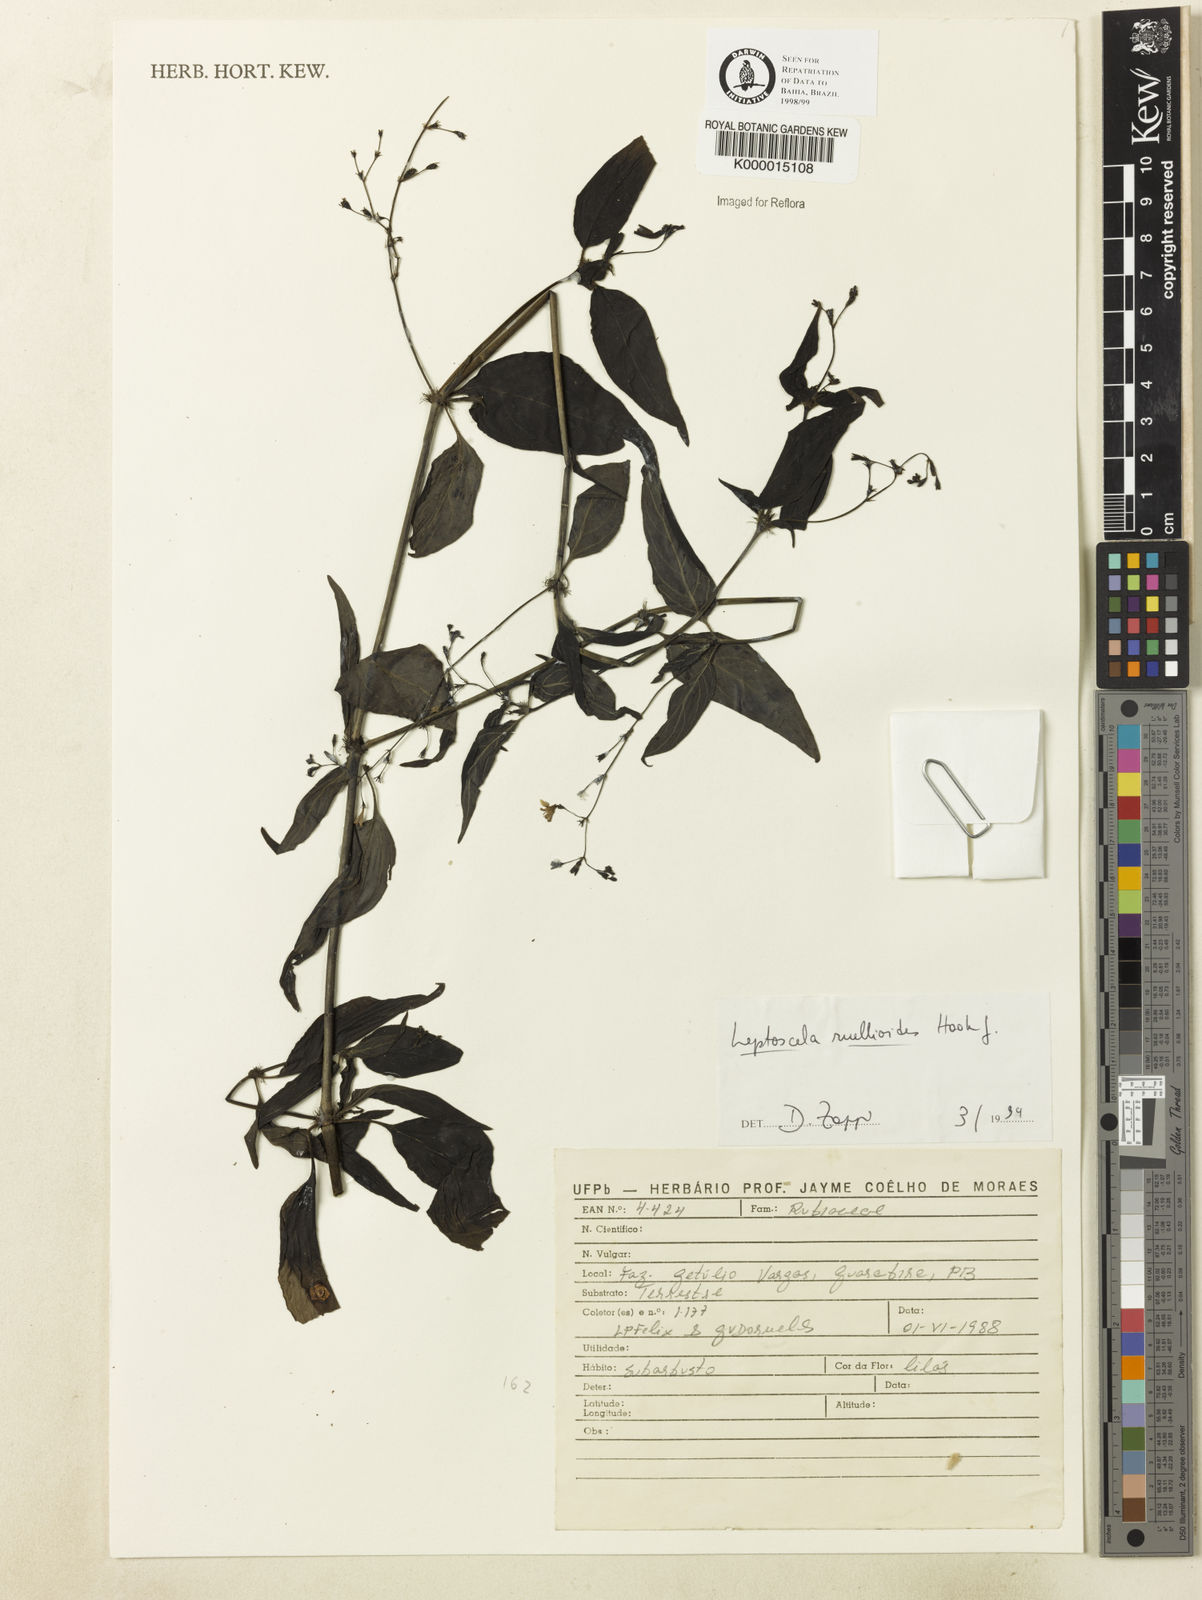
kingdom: Plantae
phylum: Tracheophyta
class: Magnoliopsida
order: Gentianales
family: Rubiaceae
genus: Leptoscela
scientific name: Leptoscela
